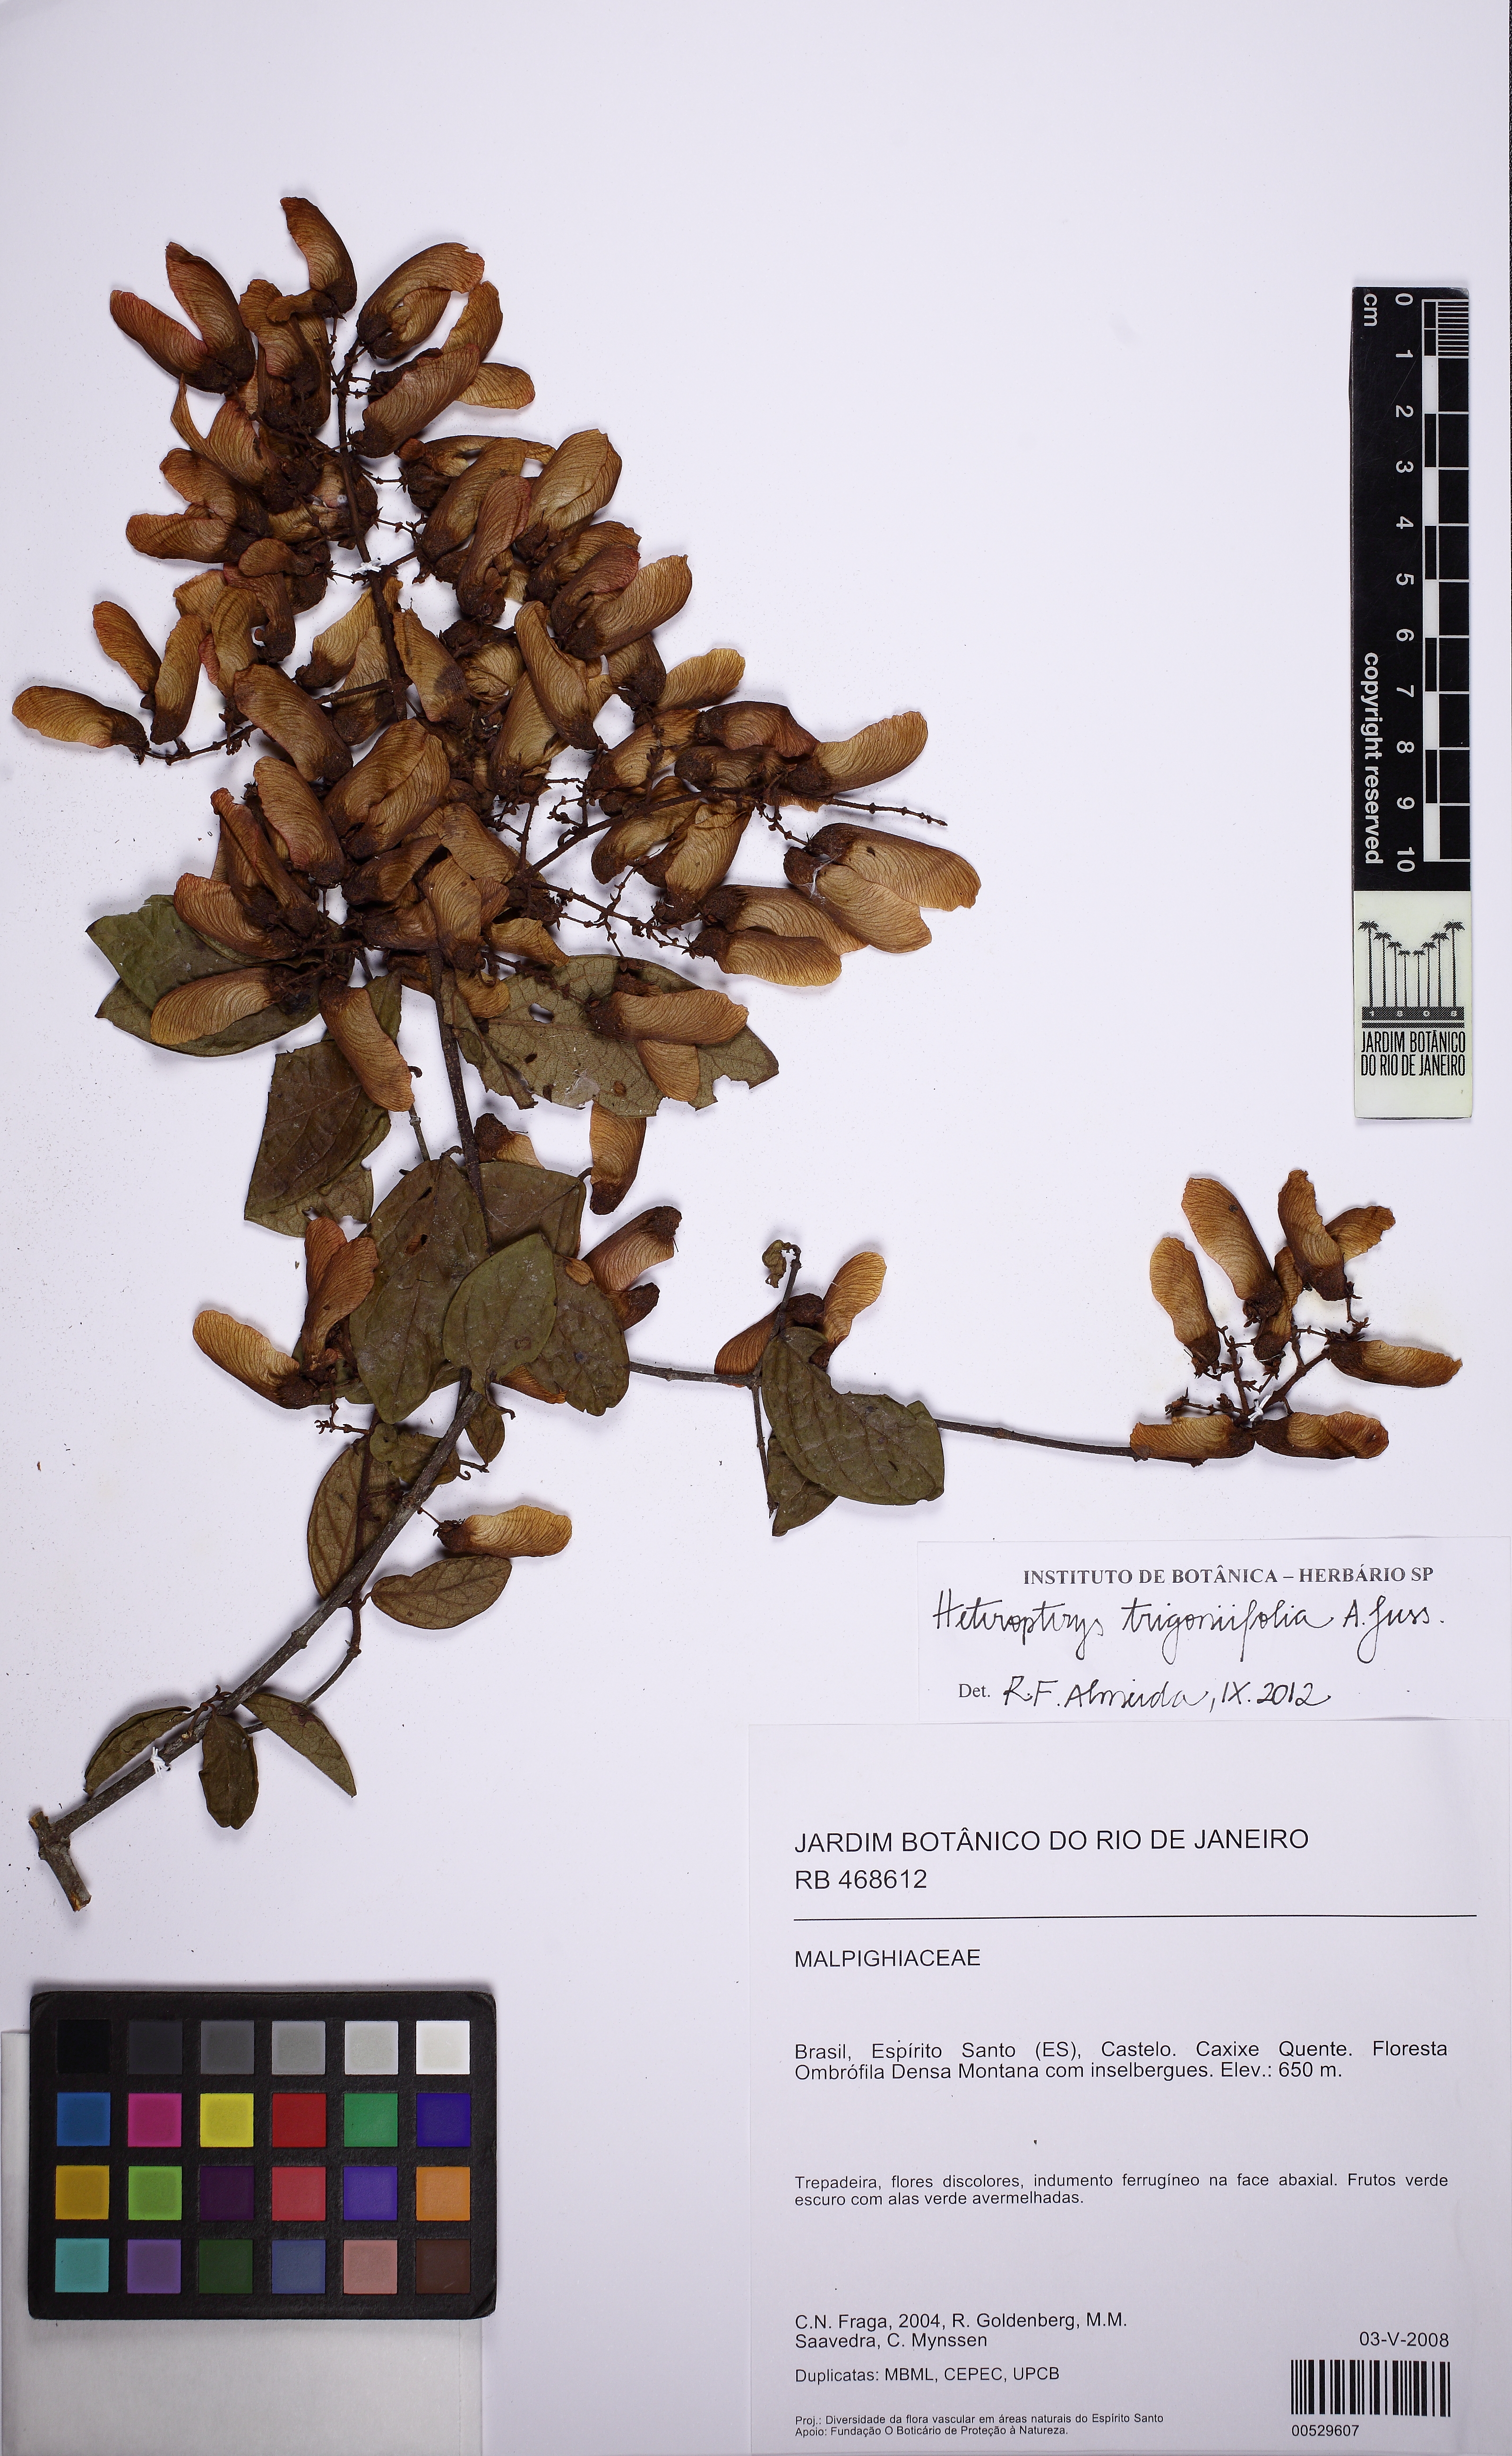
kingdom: Plantae
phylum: Tracheophyta
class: Magnoliopsida
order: Malpighiales
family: Malpighiaceae
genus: Heteropterys
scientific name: Heteropterys trigoniifolia
